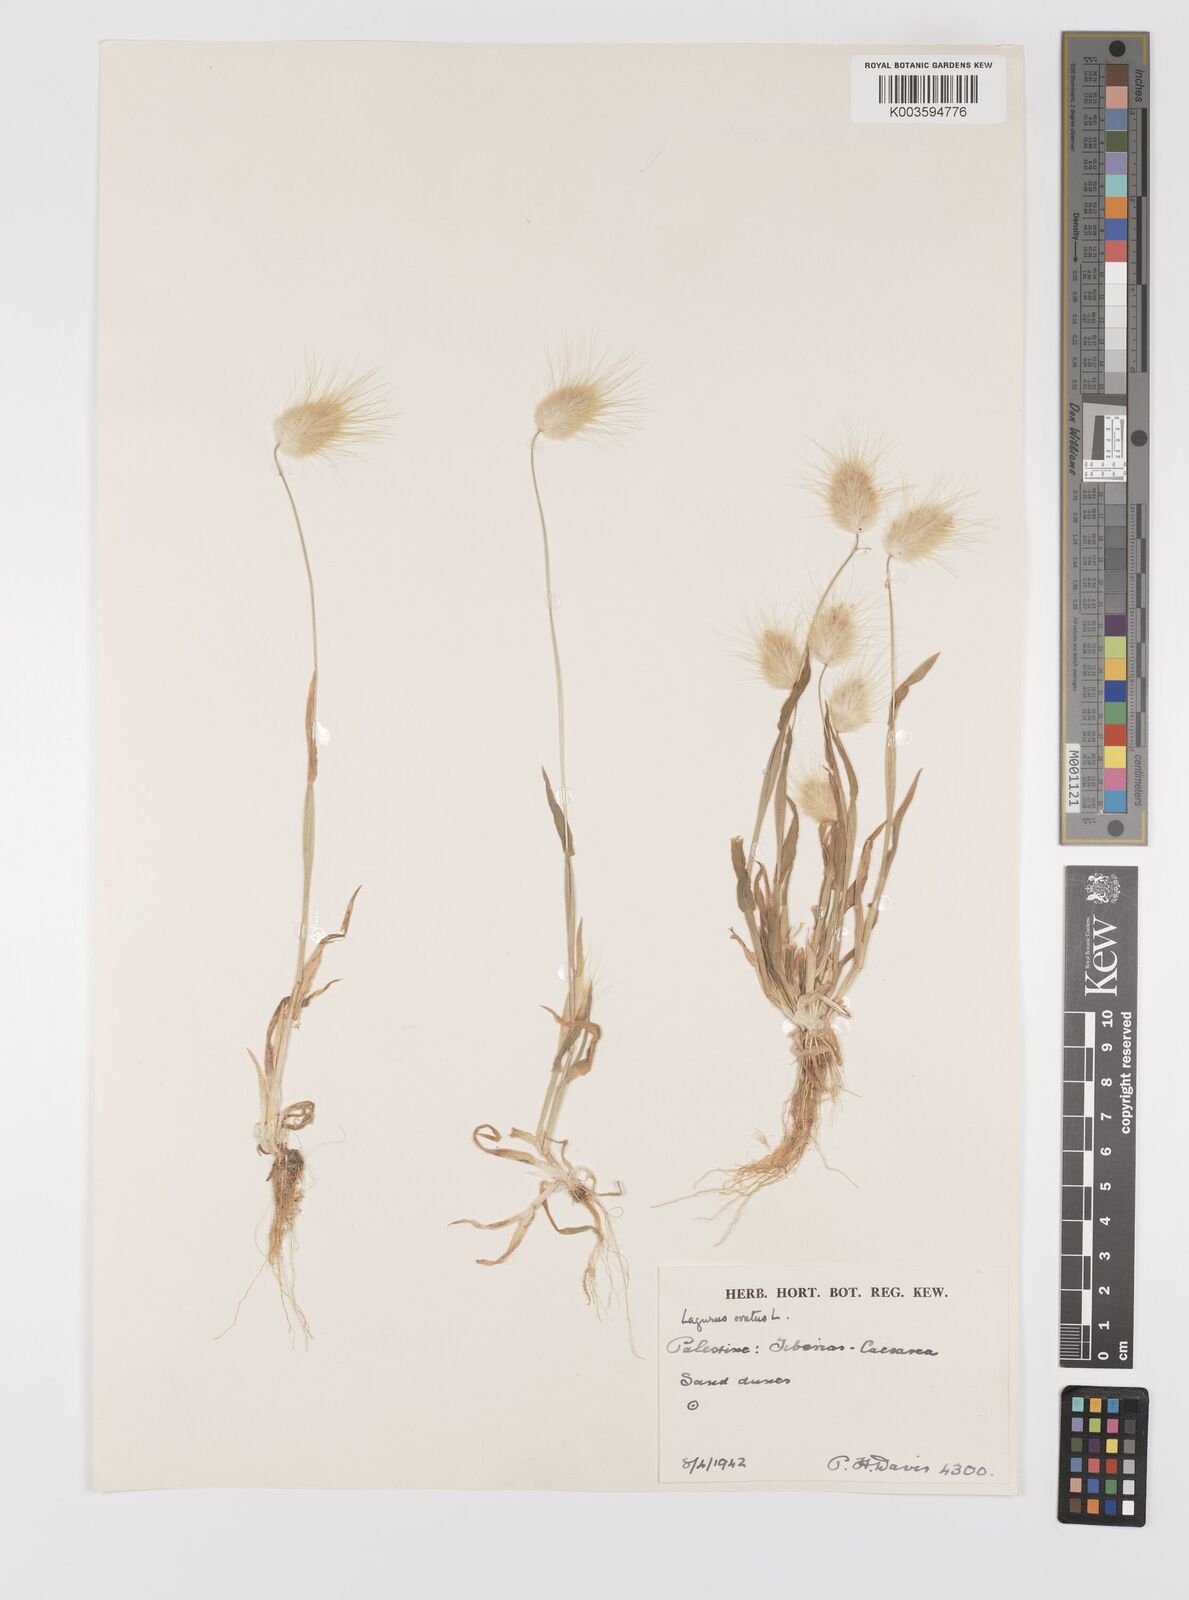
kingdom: Plantae
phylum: Tracheophyta
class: Liliopsida
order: Poales
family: Poaceae
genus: Lagurus
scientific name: Lagurus ovatus
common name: Hare's-tail
